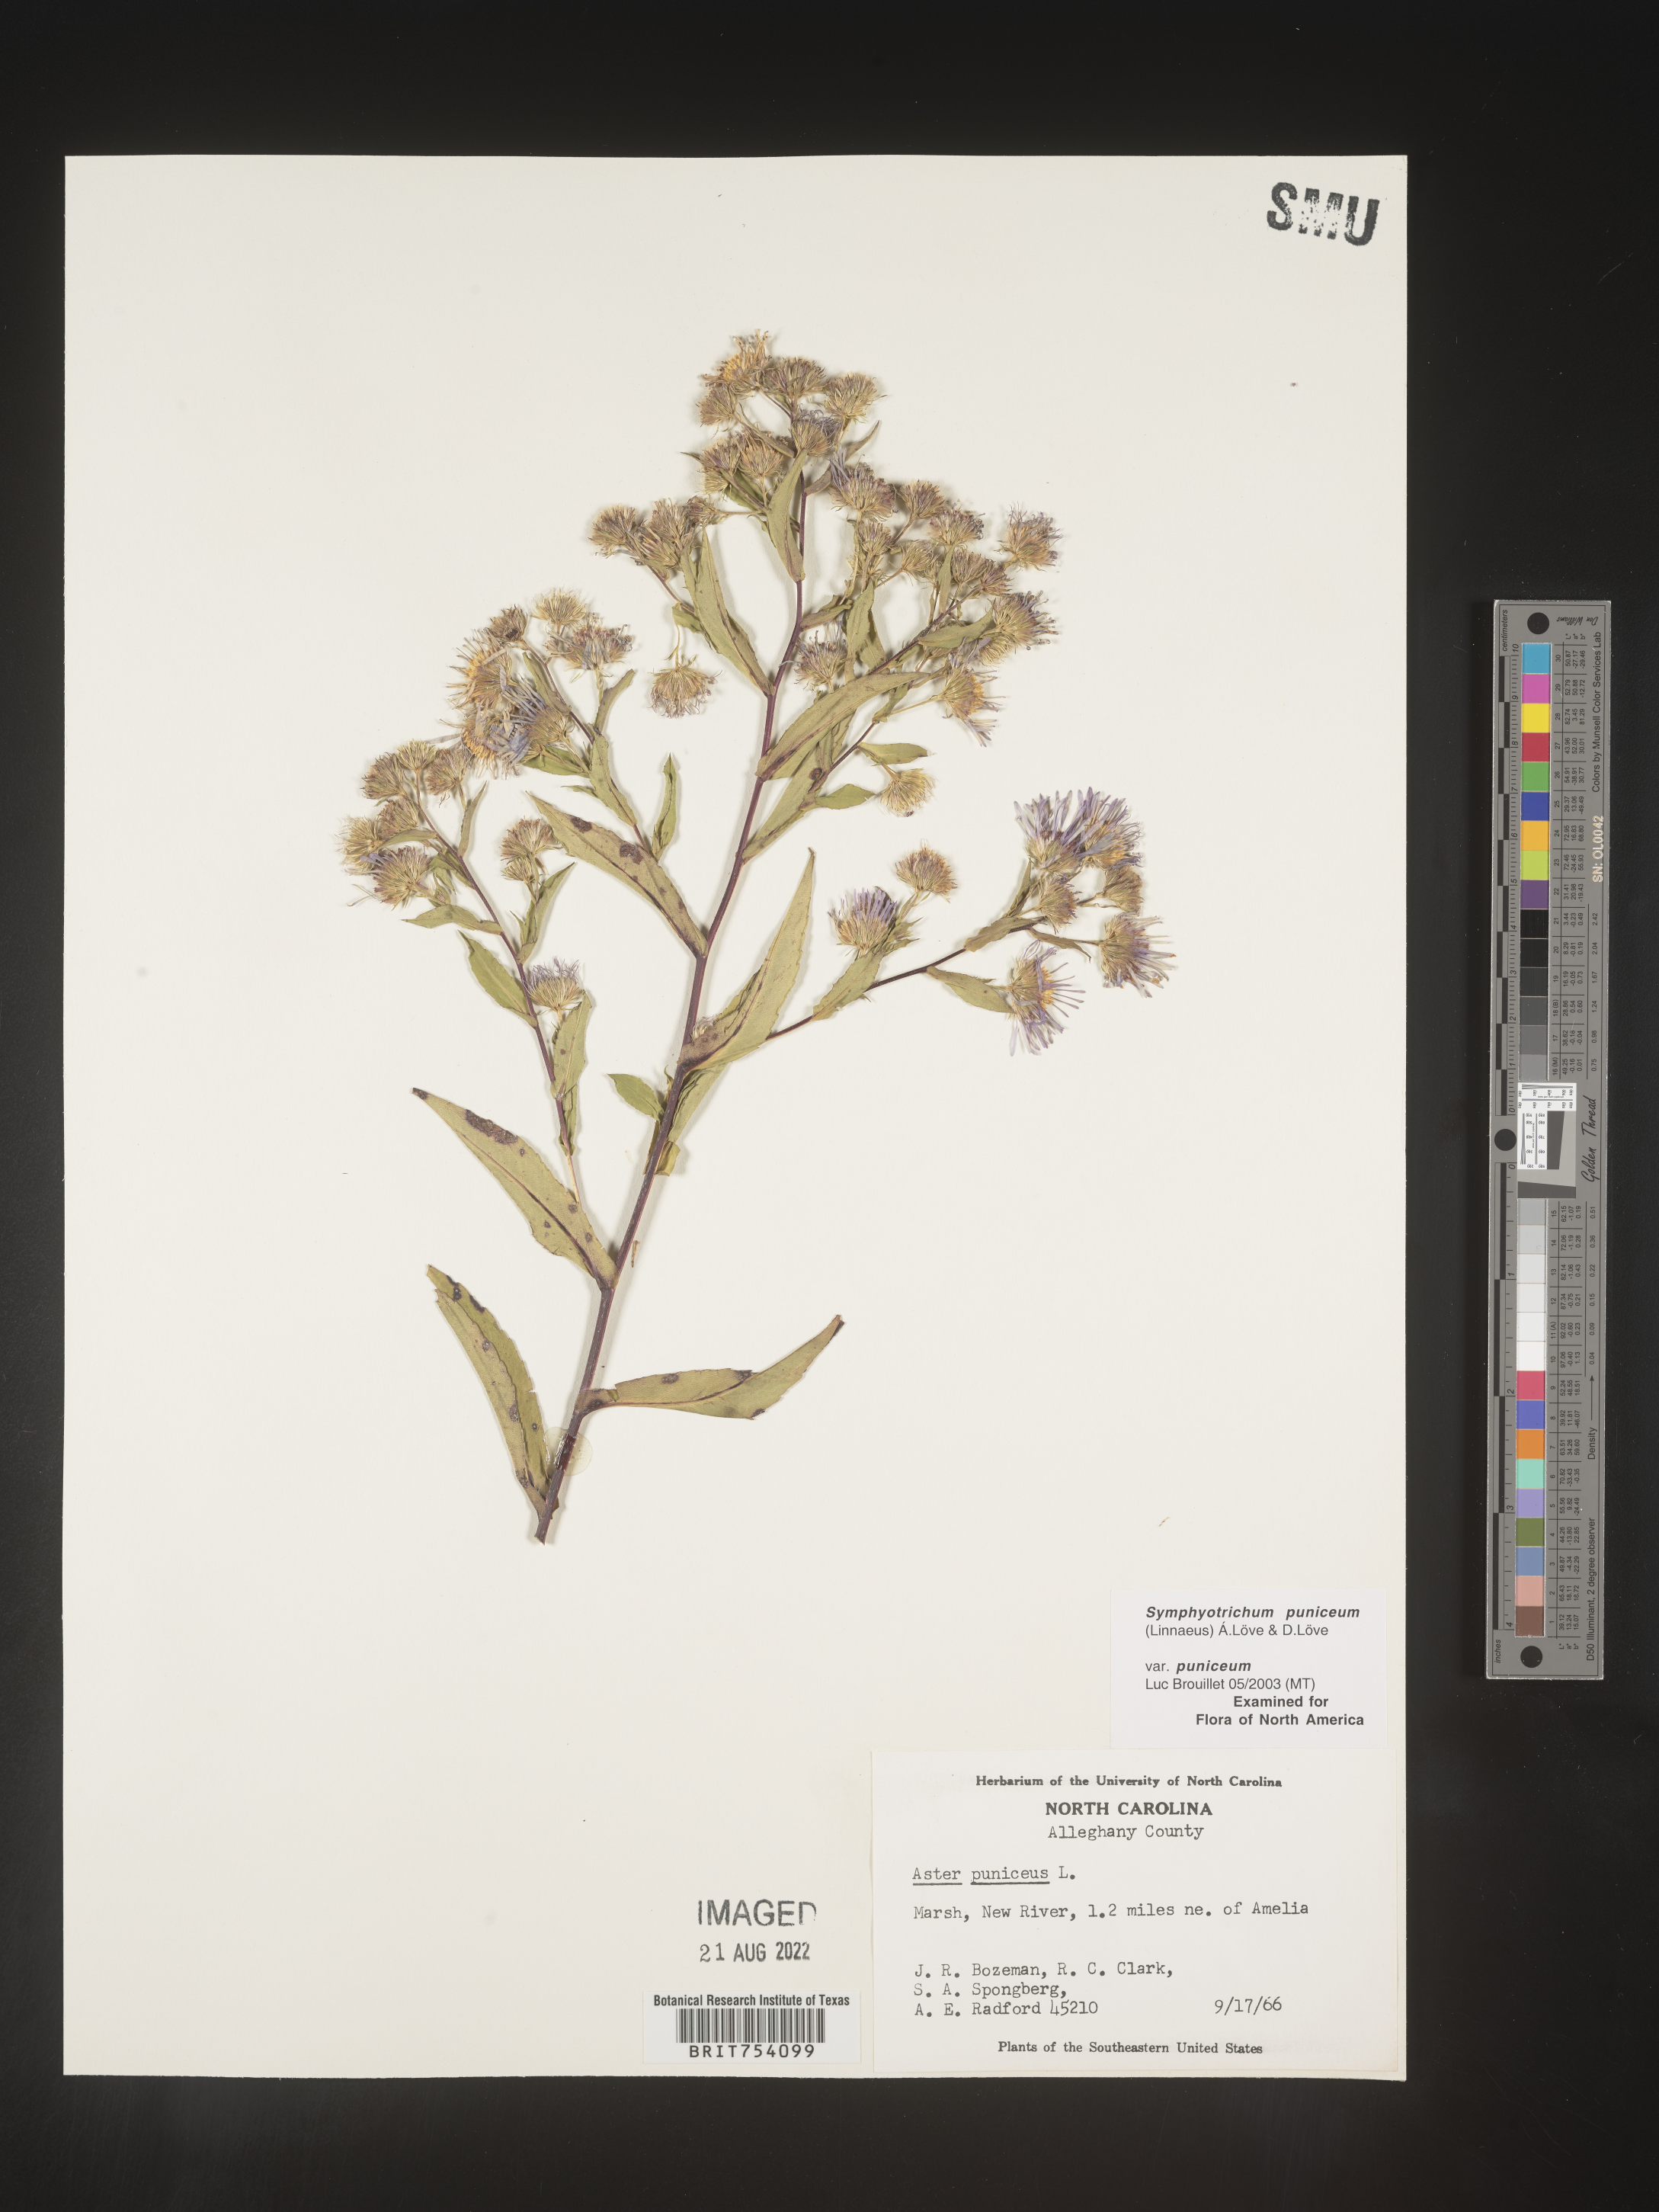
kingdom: Plantae
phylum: Tracheophyta
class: Magnoliopsida
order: Asterales
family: Asteraceae
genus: Symphyotrichum
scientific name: Symphyotrichum puniceum
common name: Bog aster
